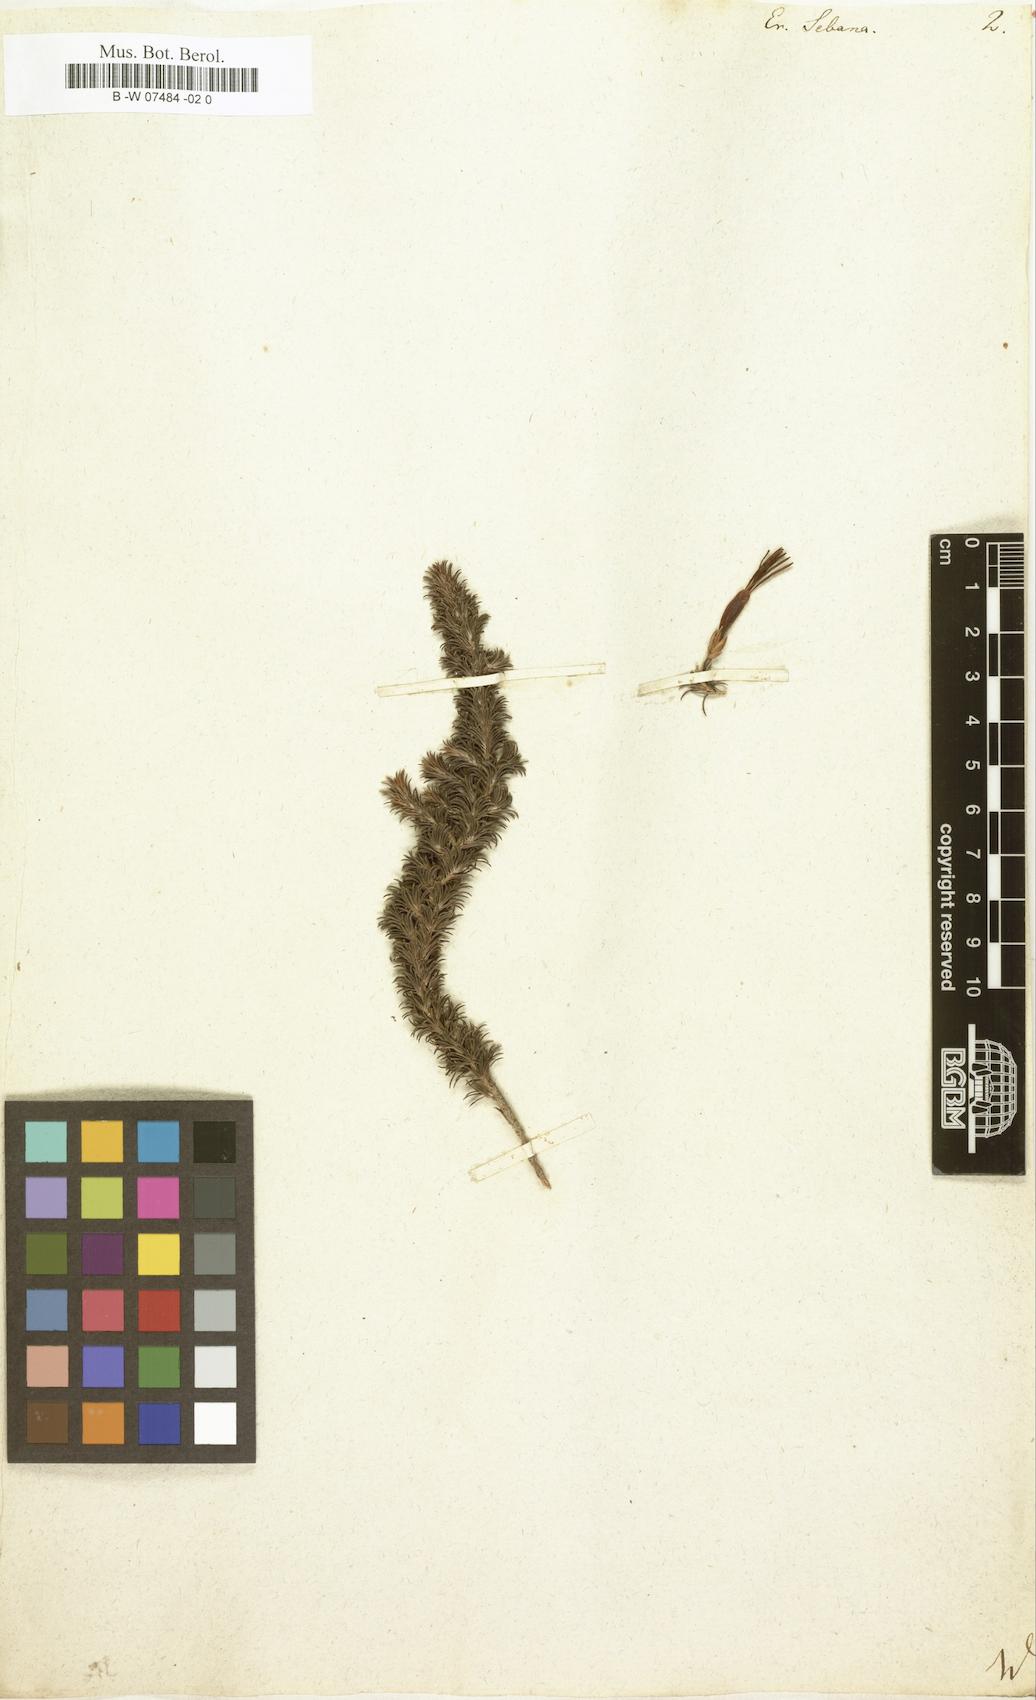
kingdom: Plantae
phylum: Tracheophyta
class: Magnoliopsida
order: Ericales
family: Ericaceae
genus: Erica
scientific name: Erica coccinea
